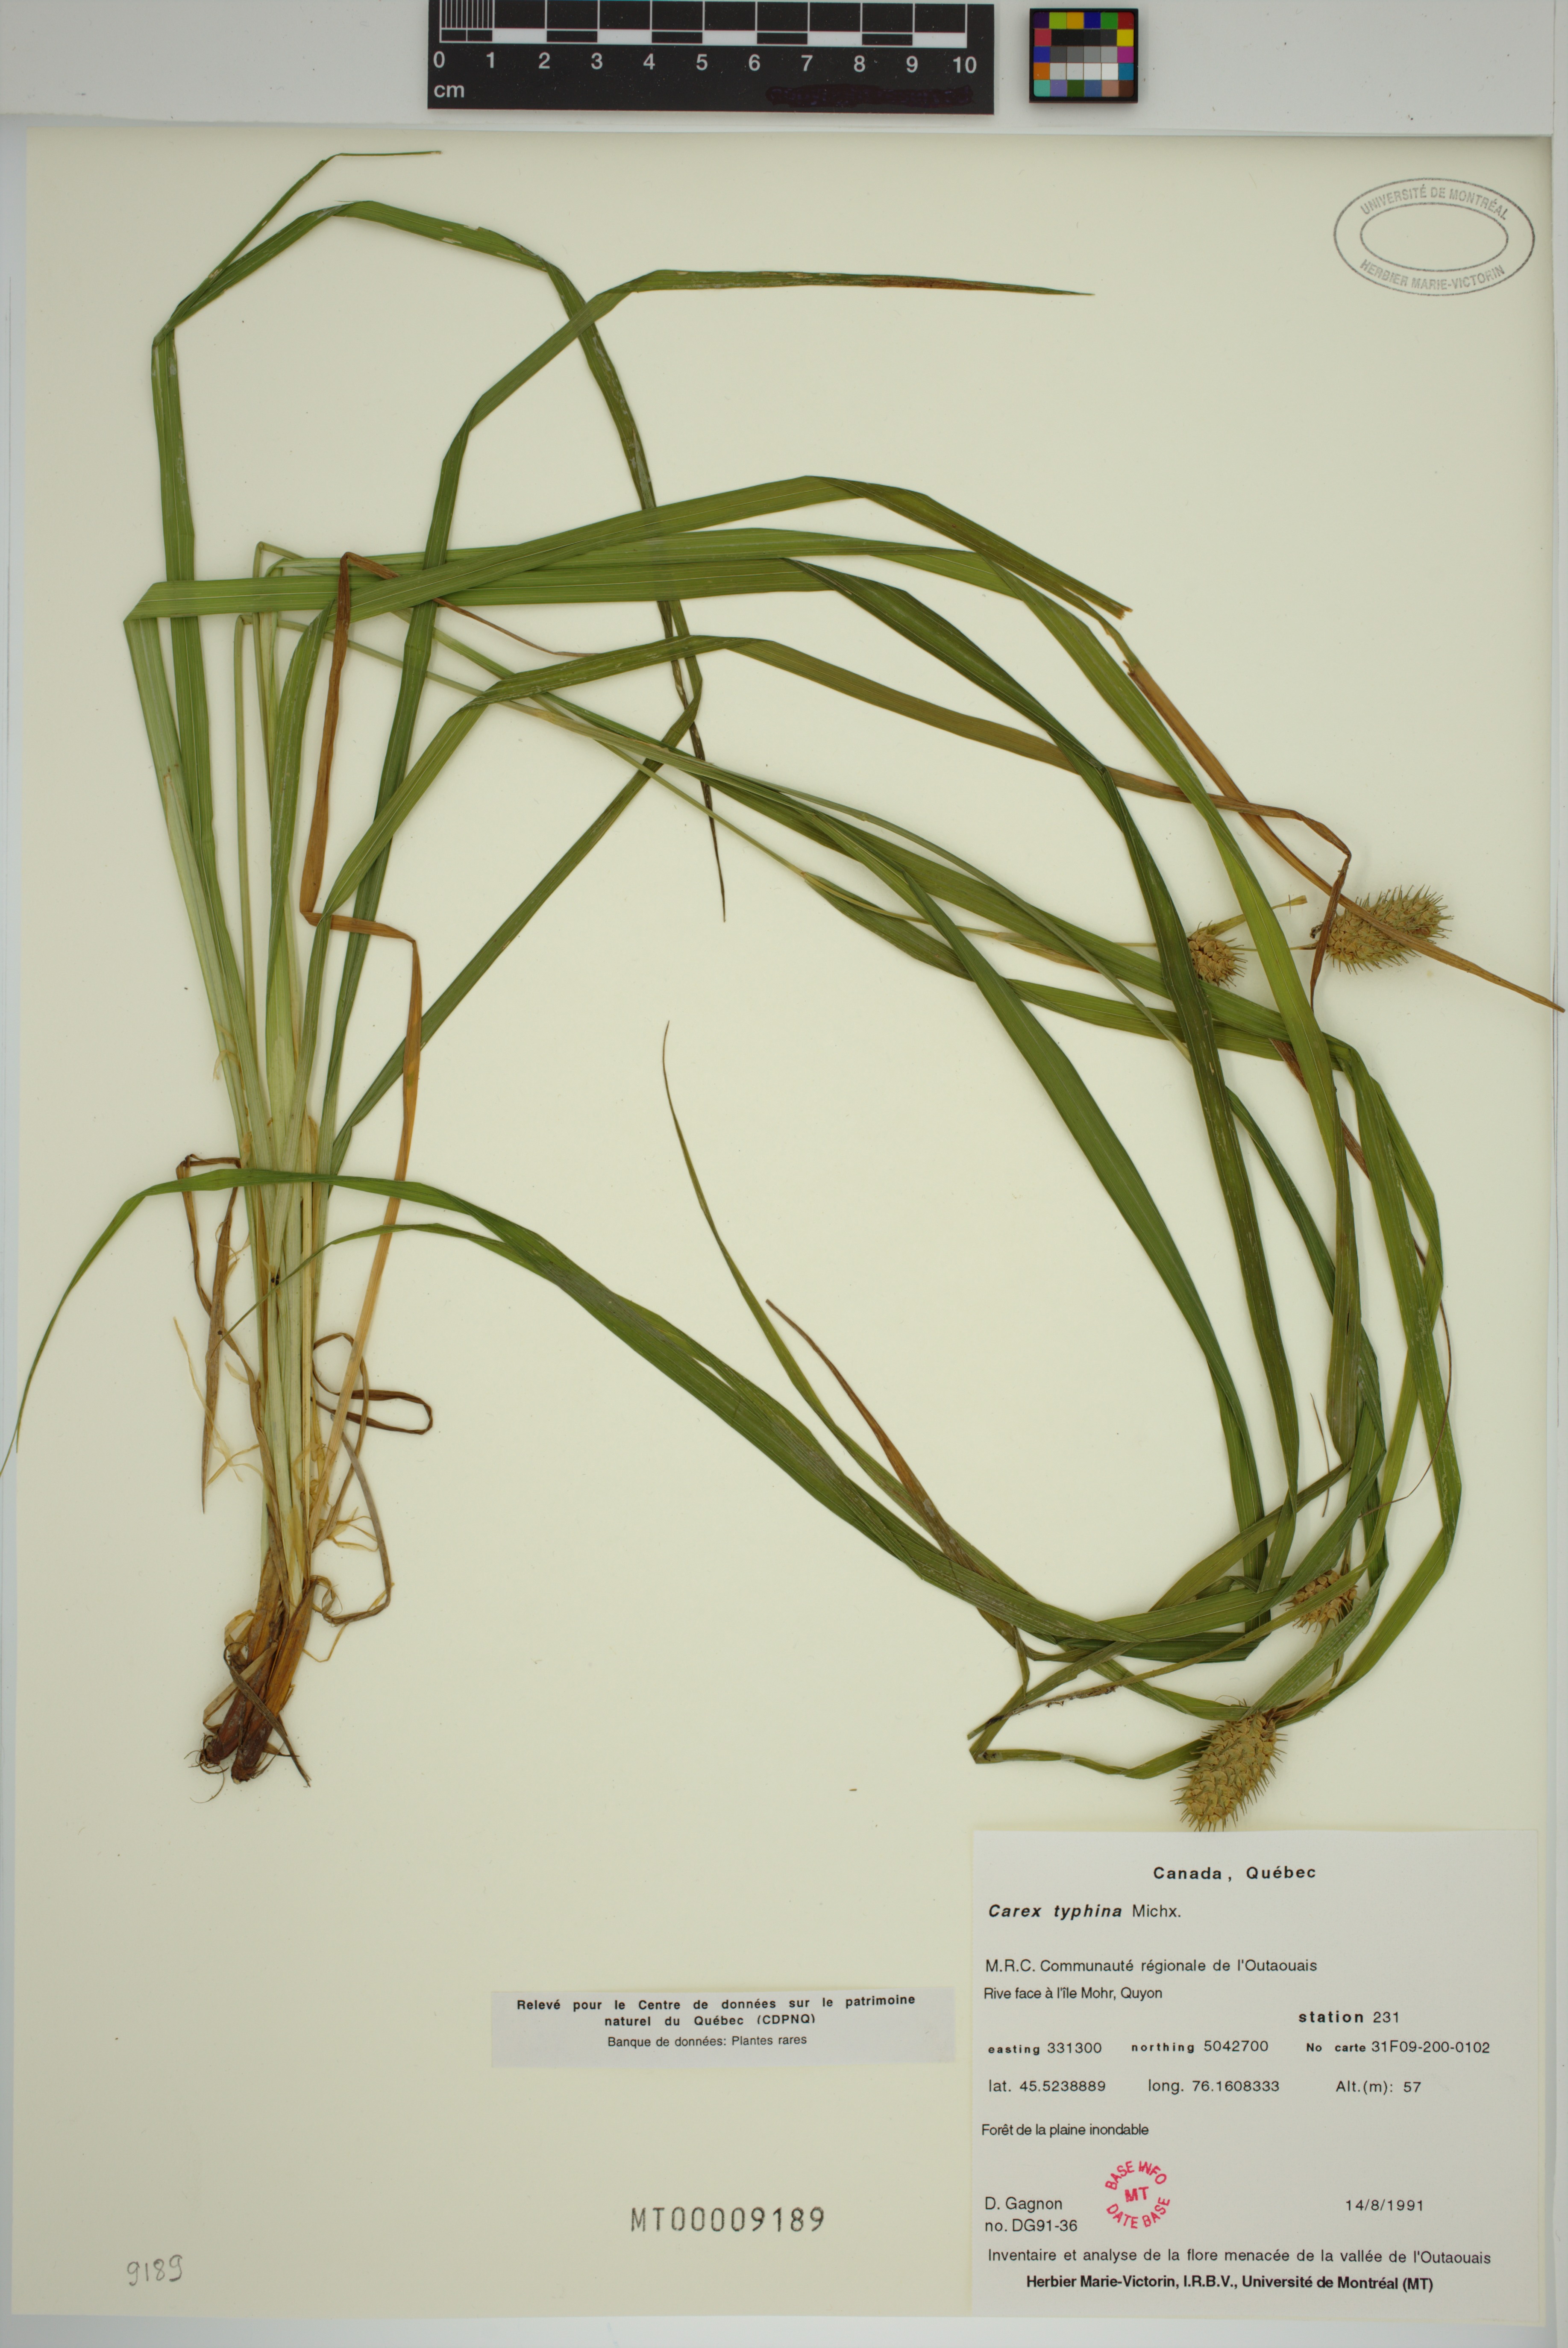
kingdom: Plantae
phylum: Tracheophyta
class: Liliopsida
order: Poales
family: Cyperaceae
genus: Carex
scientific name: Carex typhina
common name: Cattail sedge
